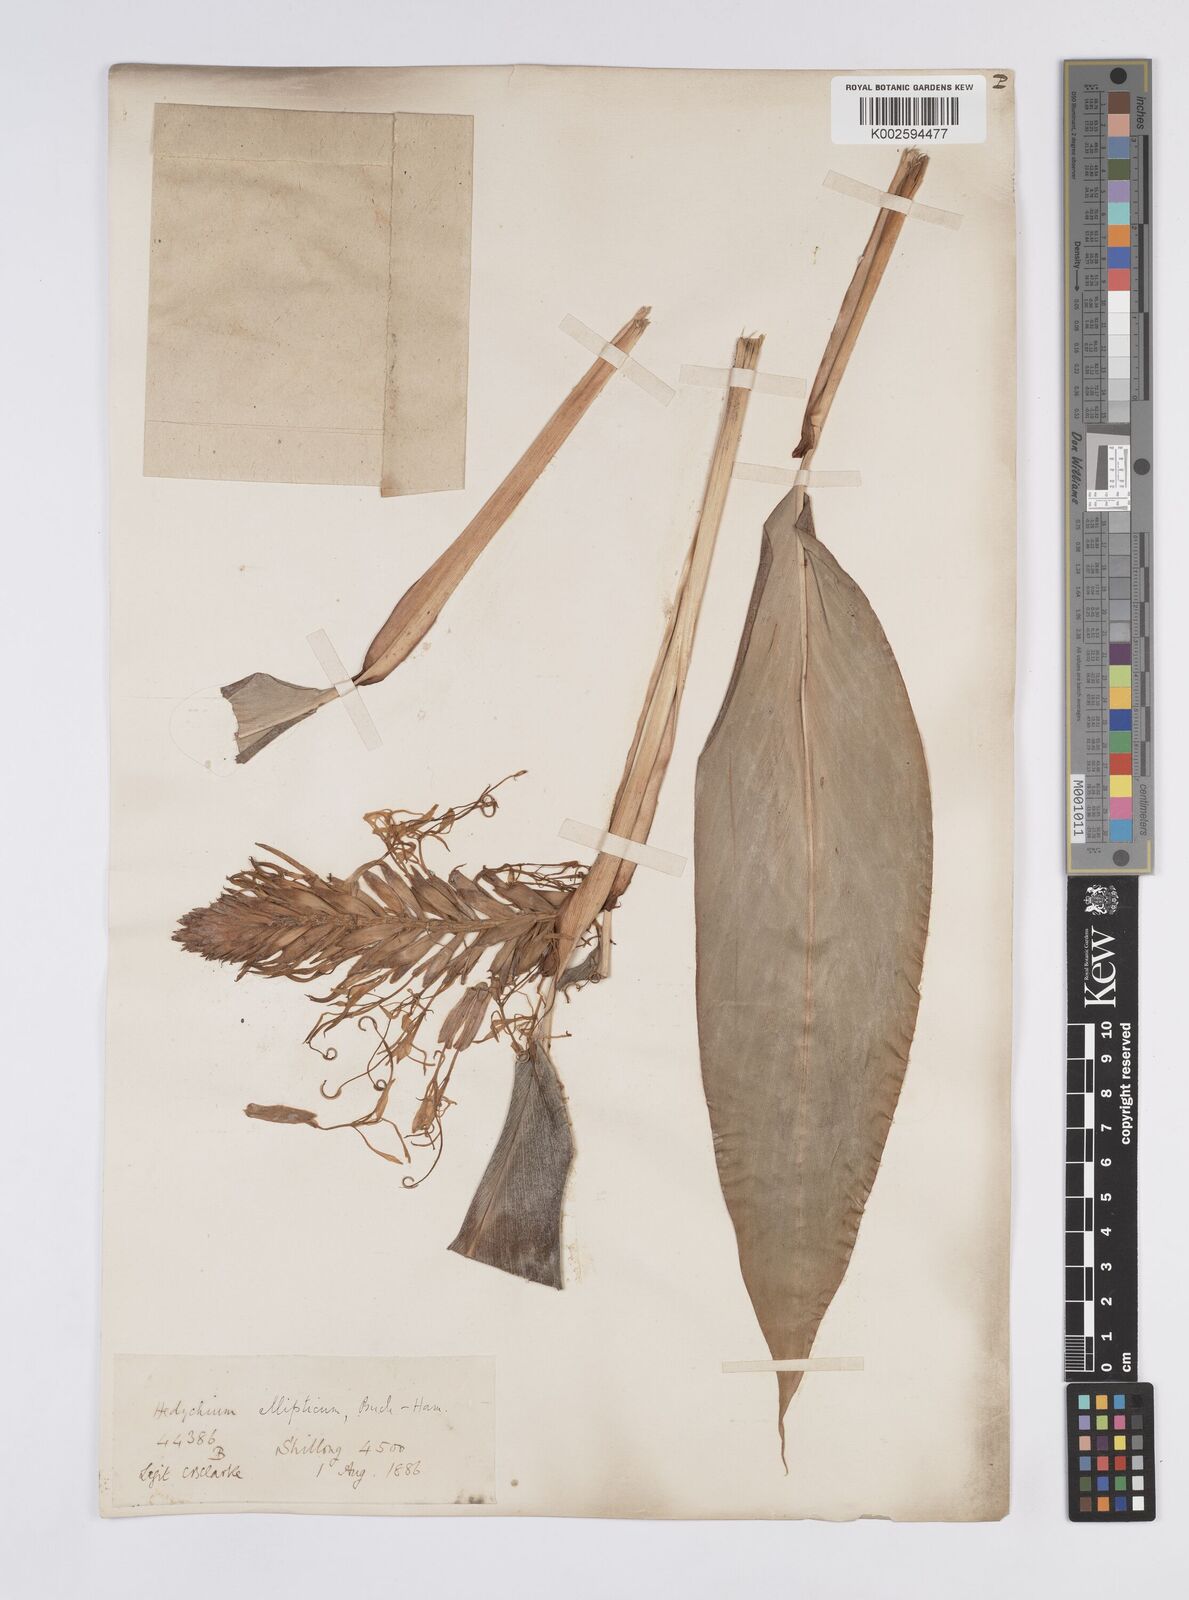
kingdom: Plantae
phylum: Tracheophyta
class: Liliopsida
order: Zingiberales
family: Zingiberaceae
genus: Hedychium
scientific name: Hedychium ellipticum
